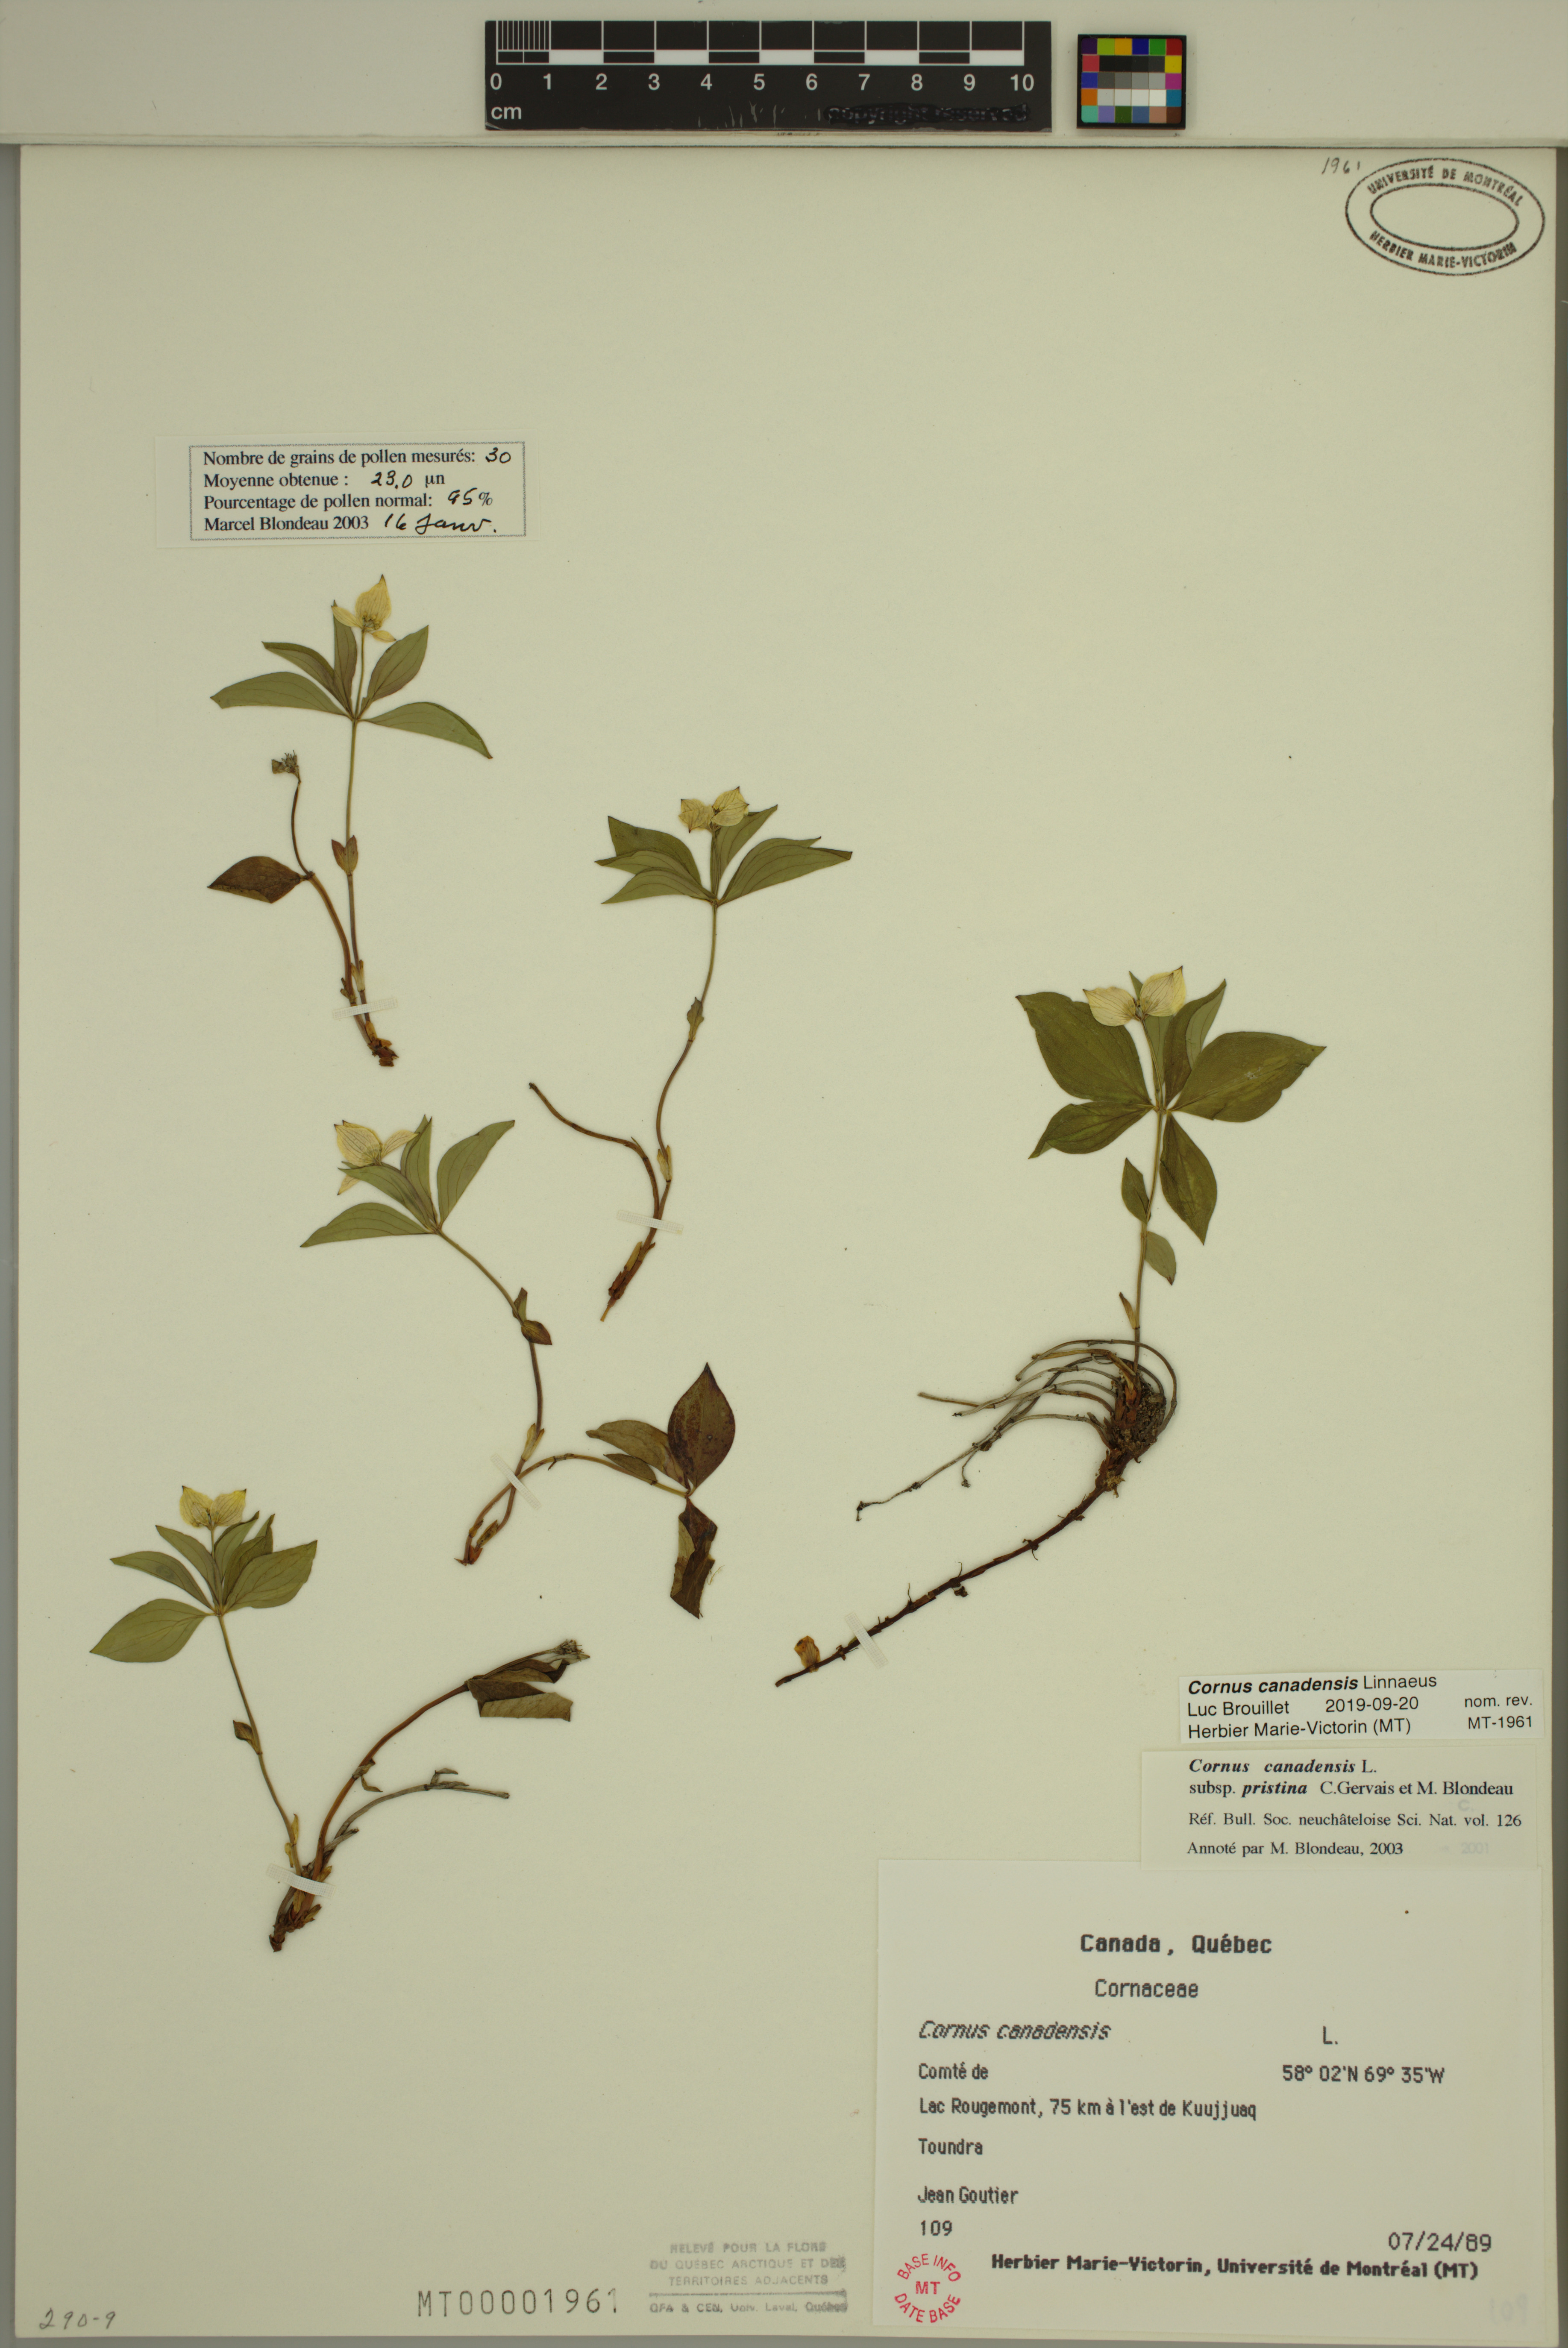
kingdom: Plantae
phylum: Tracheophyta
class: Magnoliopsida
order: Cornales
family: Cornaceae
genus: Cornus
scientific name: Cornus canadensis
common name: Creeping dogwood
